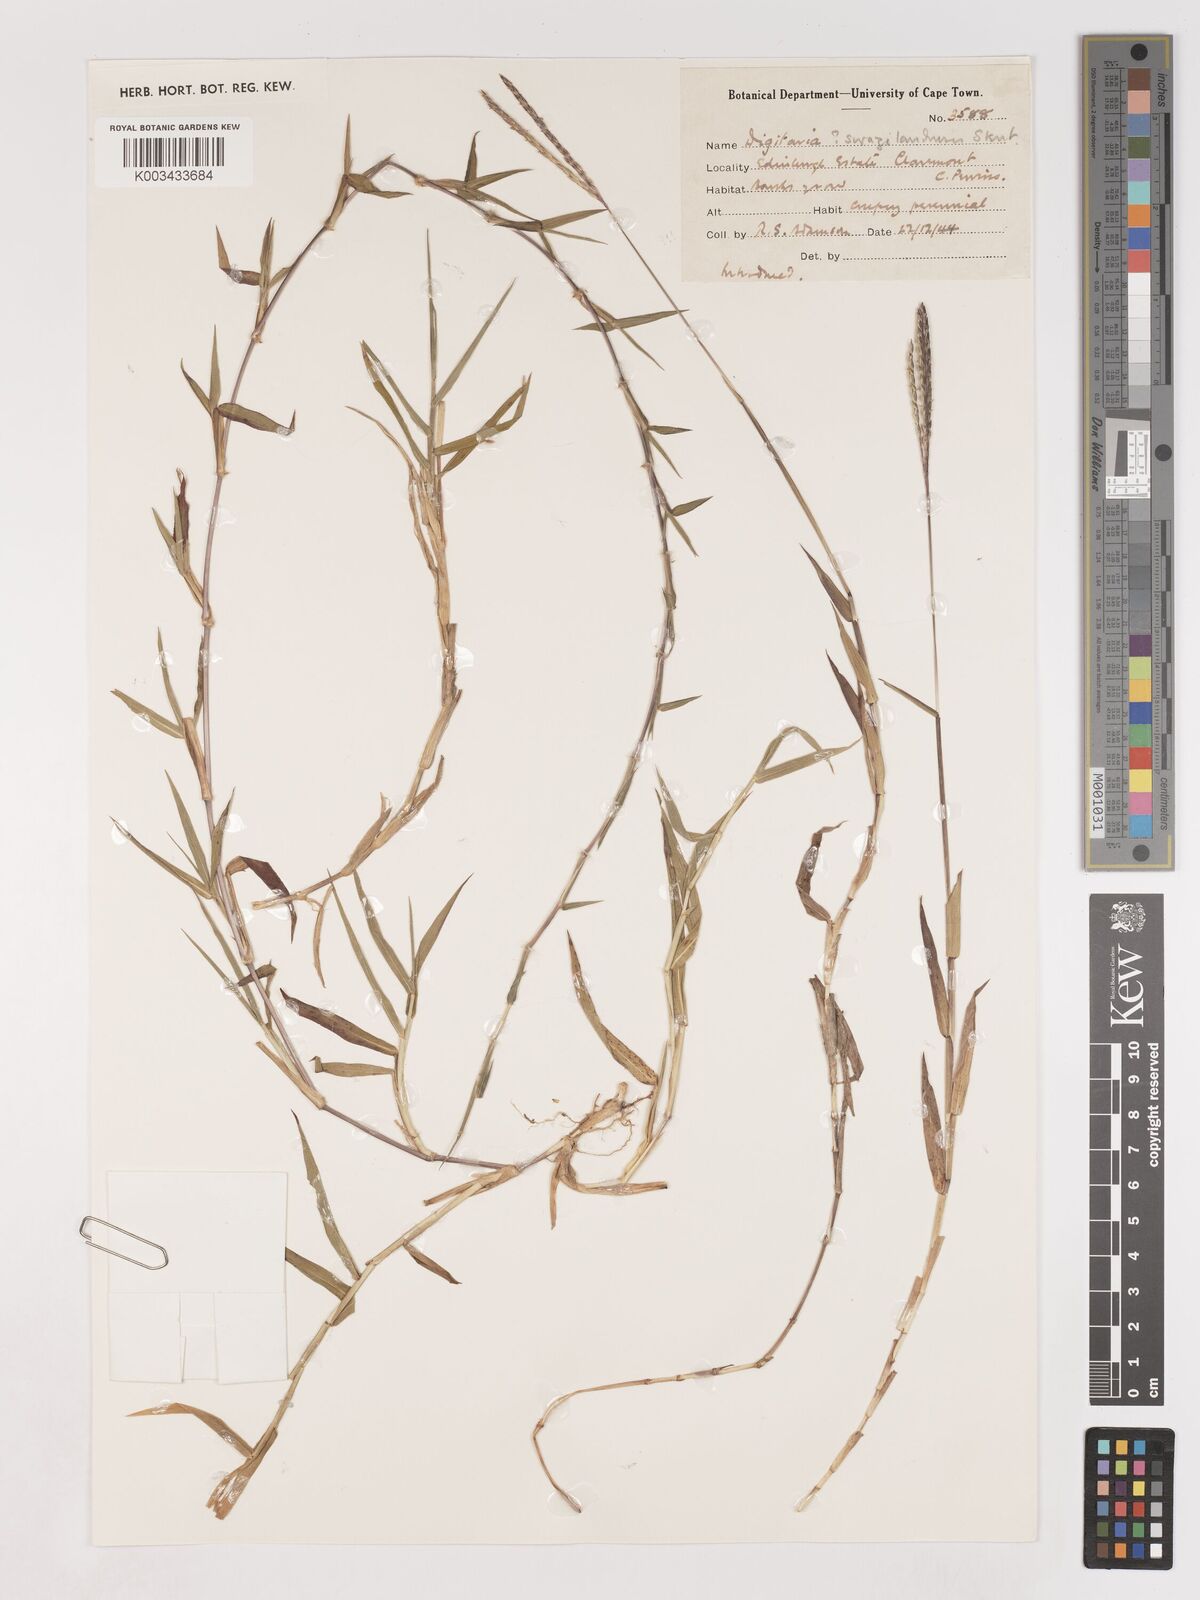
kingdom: Plantae
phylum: Tracheophyta
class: Liliopsida
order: Poales
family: Poaceae
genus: Digitaria
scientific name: Digitaria diversinervis
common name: Richmond finger grass
